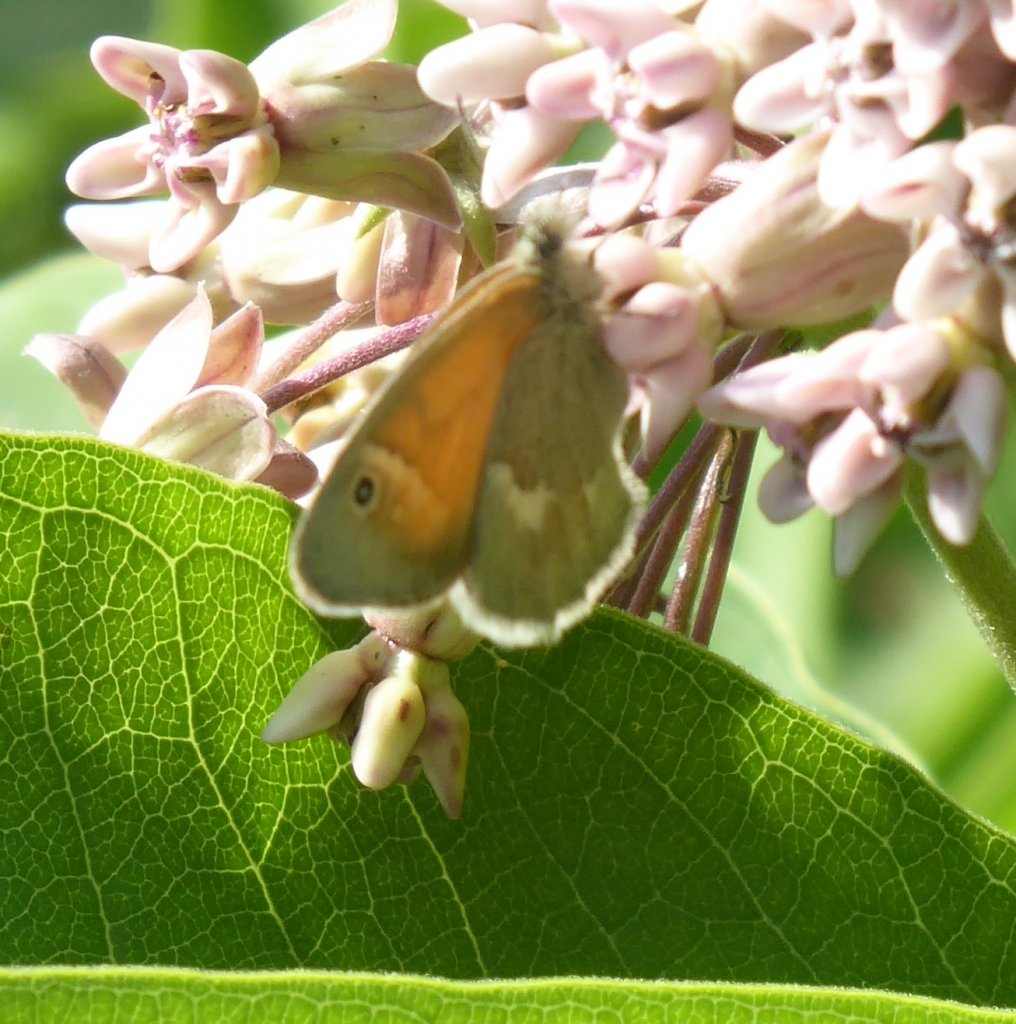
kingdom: Animalia
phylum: Arthropoda
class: Insecta
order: Lepidoptera
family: Nymphalidae
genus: Coenonympha
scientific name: Coenonympha tullia
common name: Large Heath
